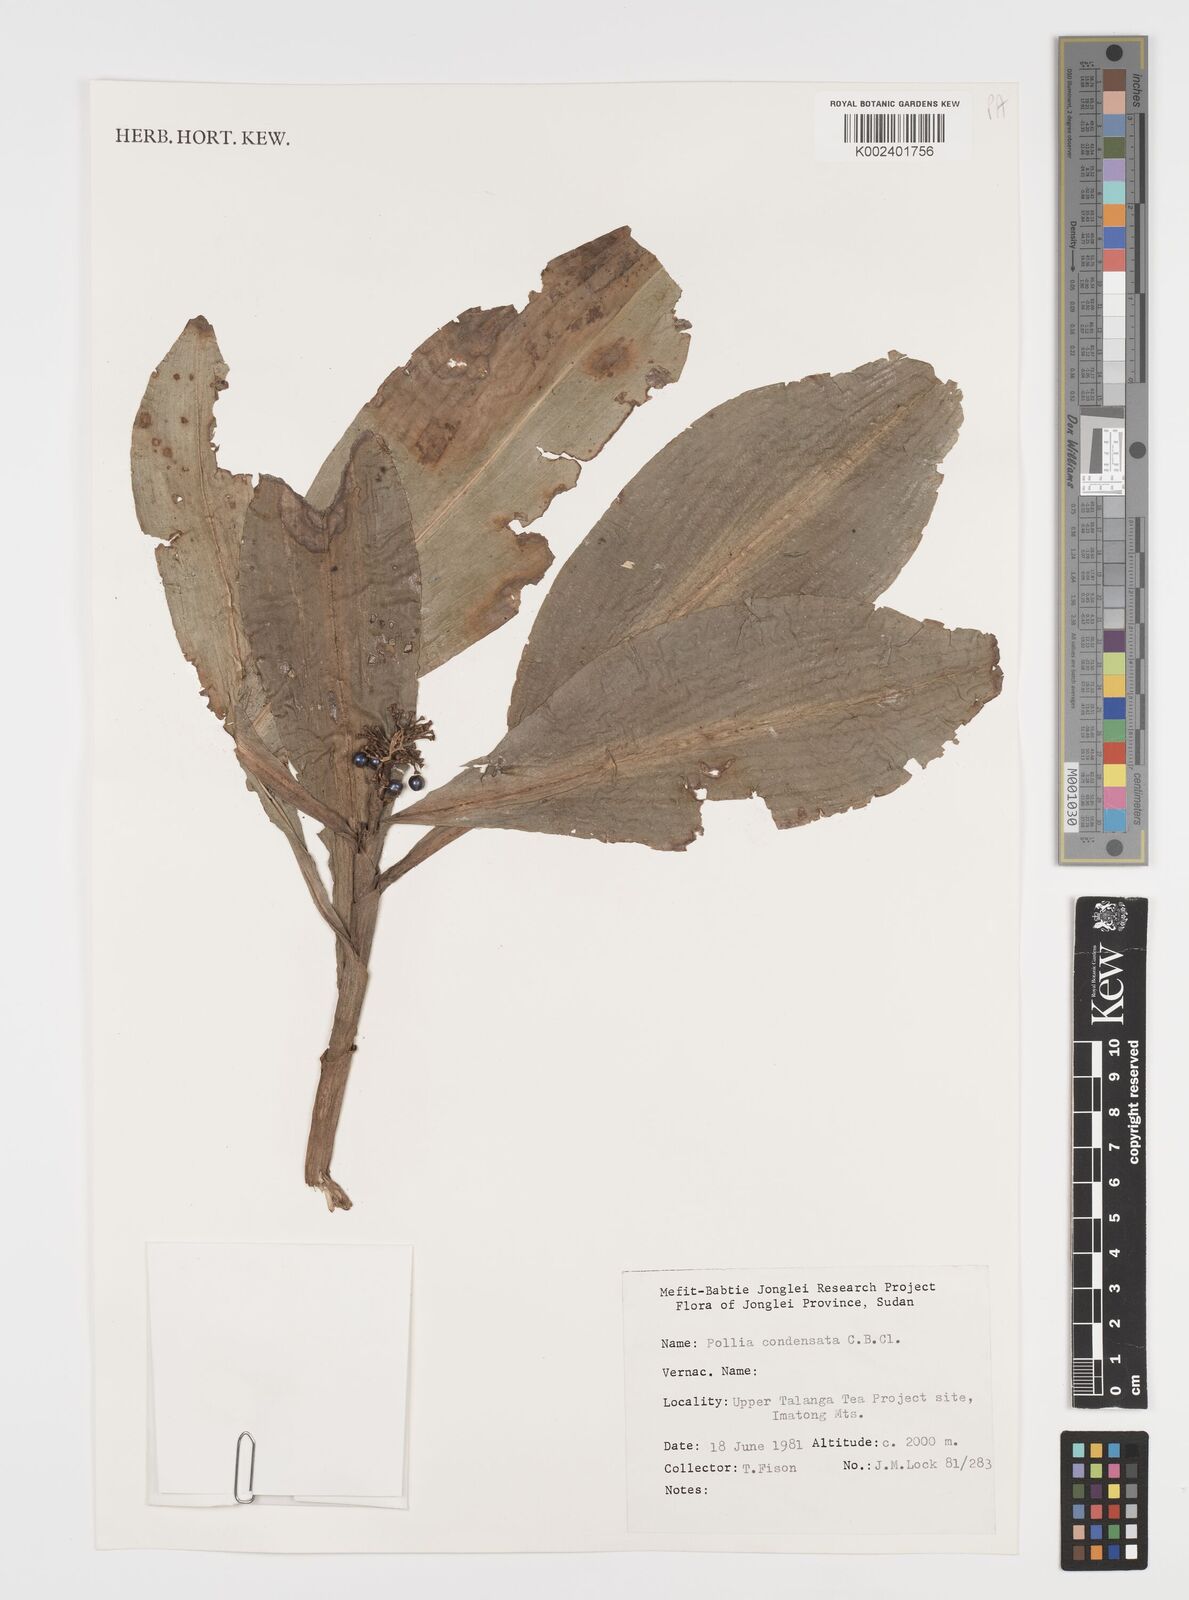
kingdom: Plantae
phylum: Tracheophyta
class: Liliopsida
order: Commelinales
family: Commelinaceae
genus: Pollia
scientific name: Pollia condensata
